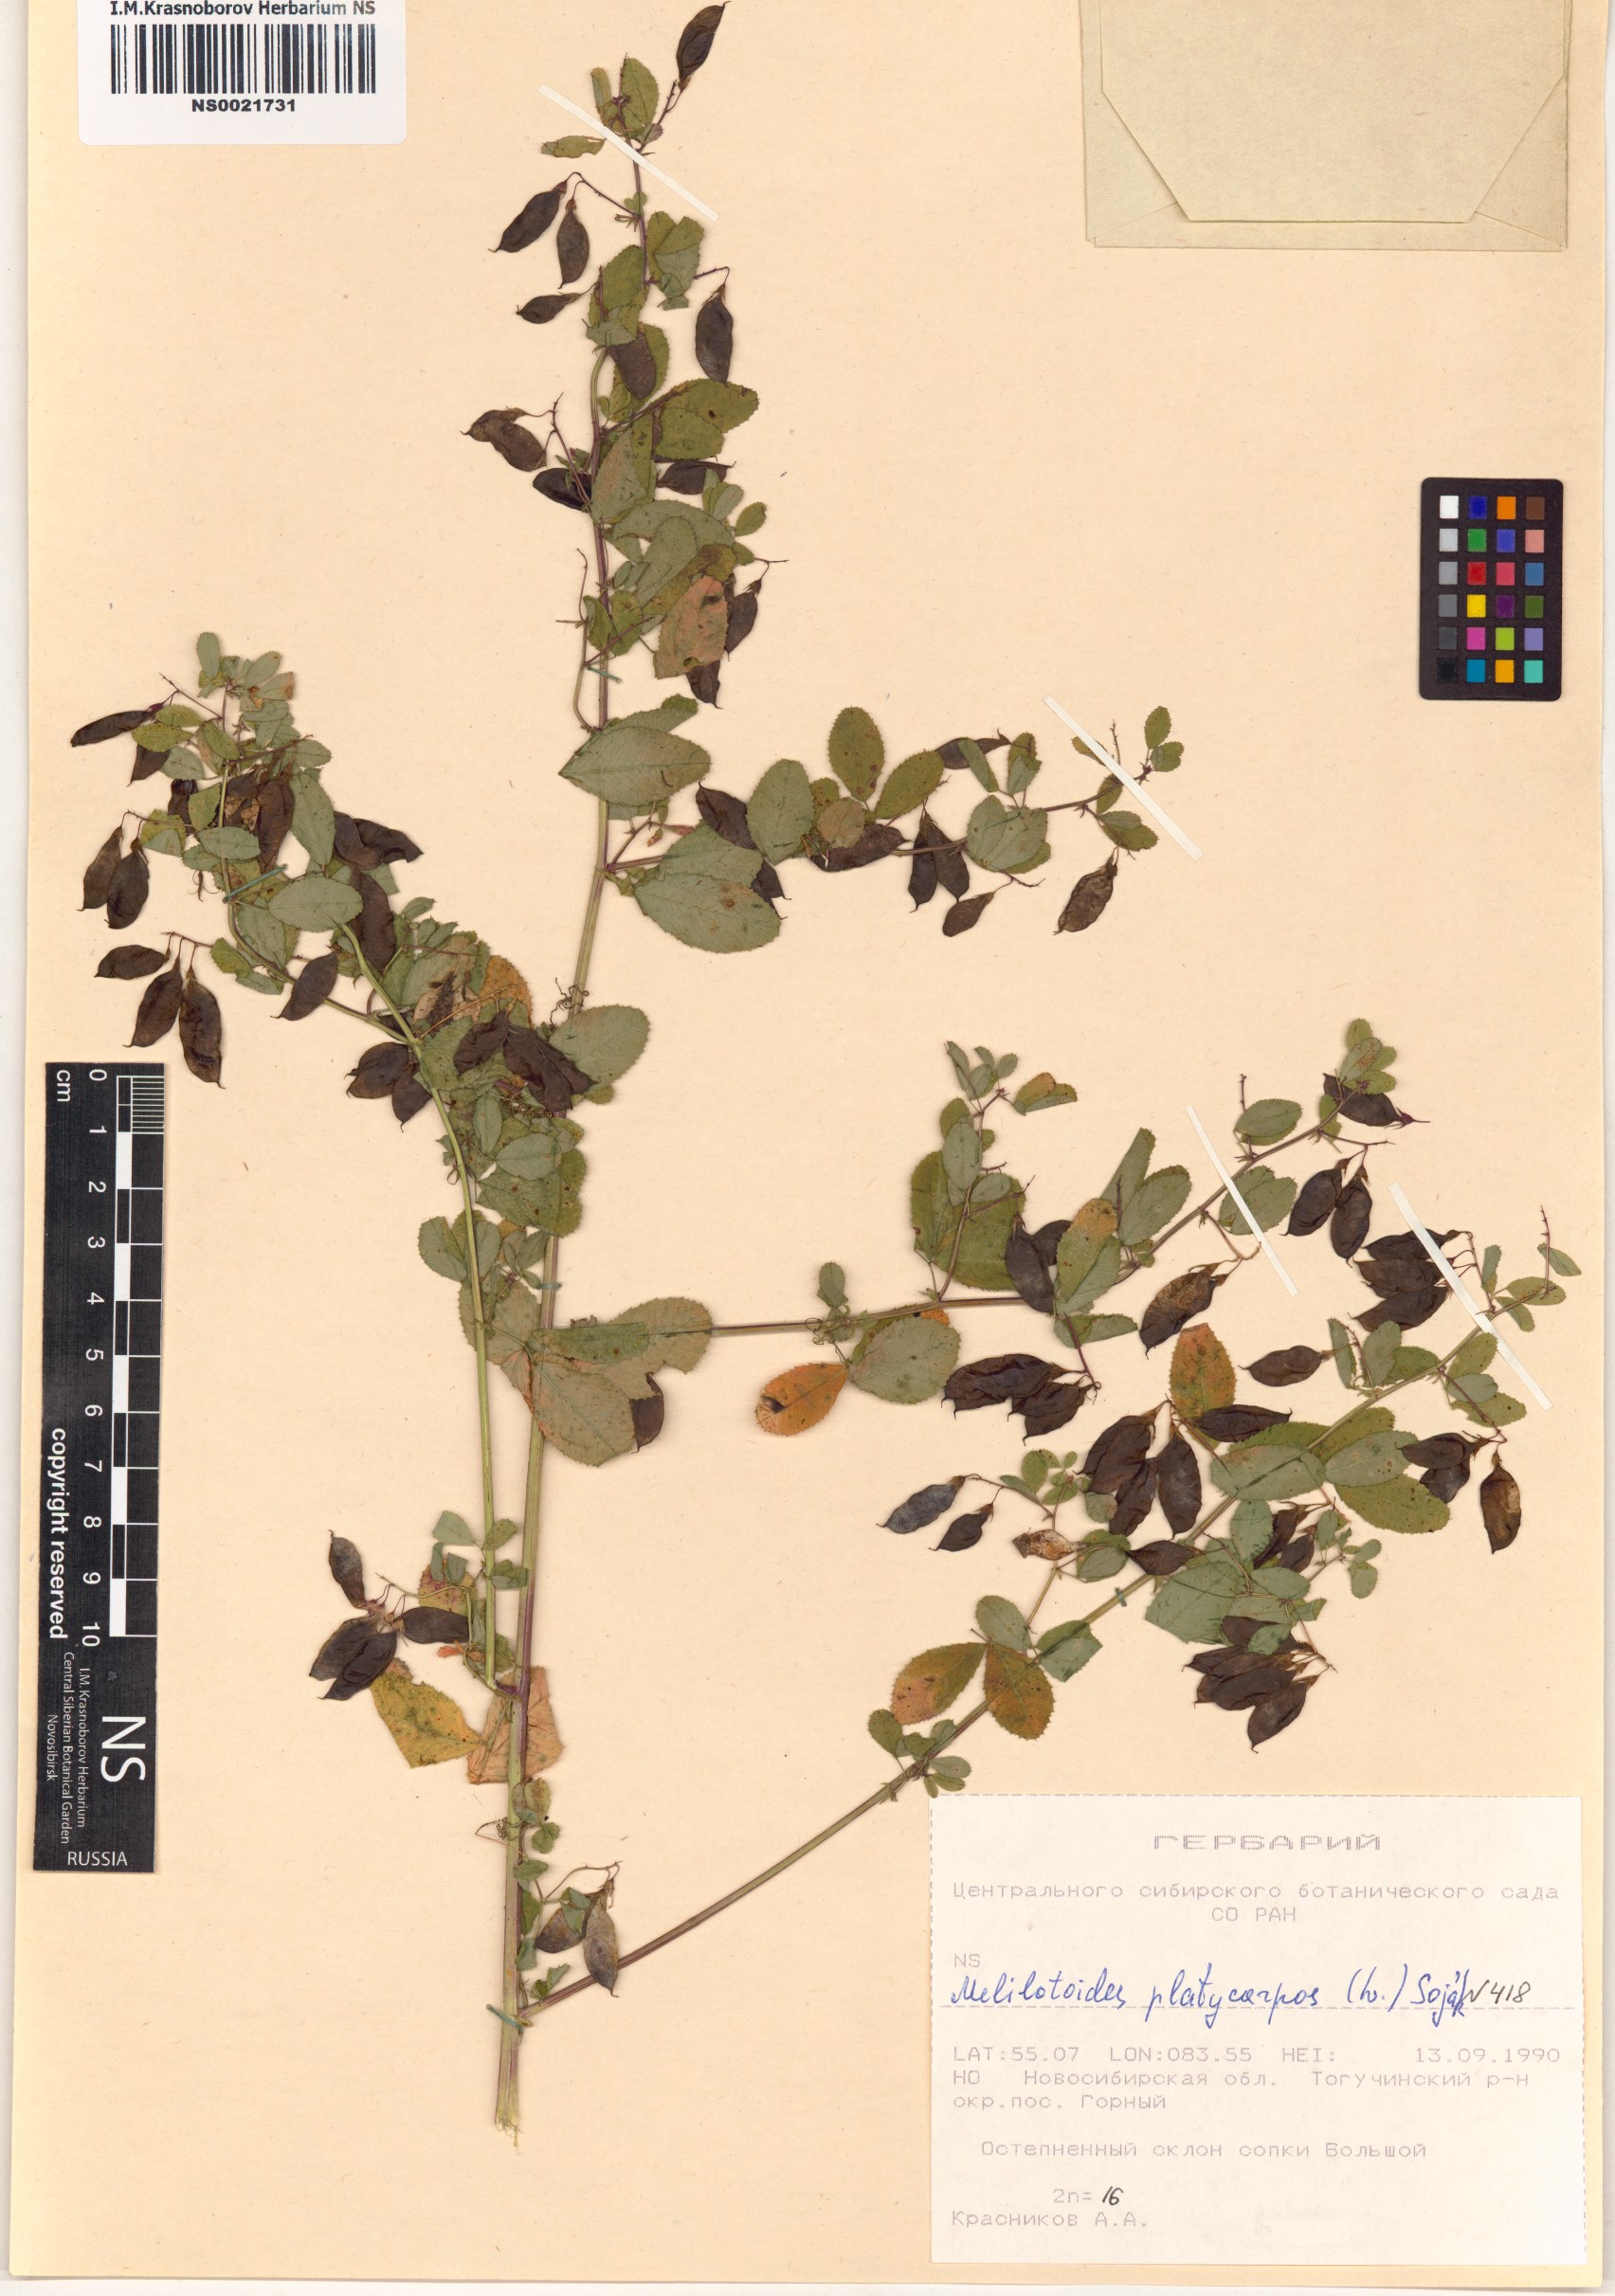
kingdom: Plantae
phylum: Tracheophyta
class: Magnoliopsida
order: Fabales
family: Fabaceae
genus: Medicago
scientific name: Medicago platycarpos
